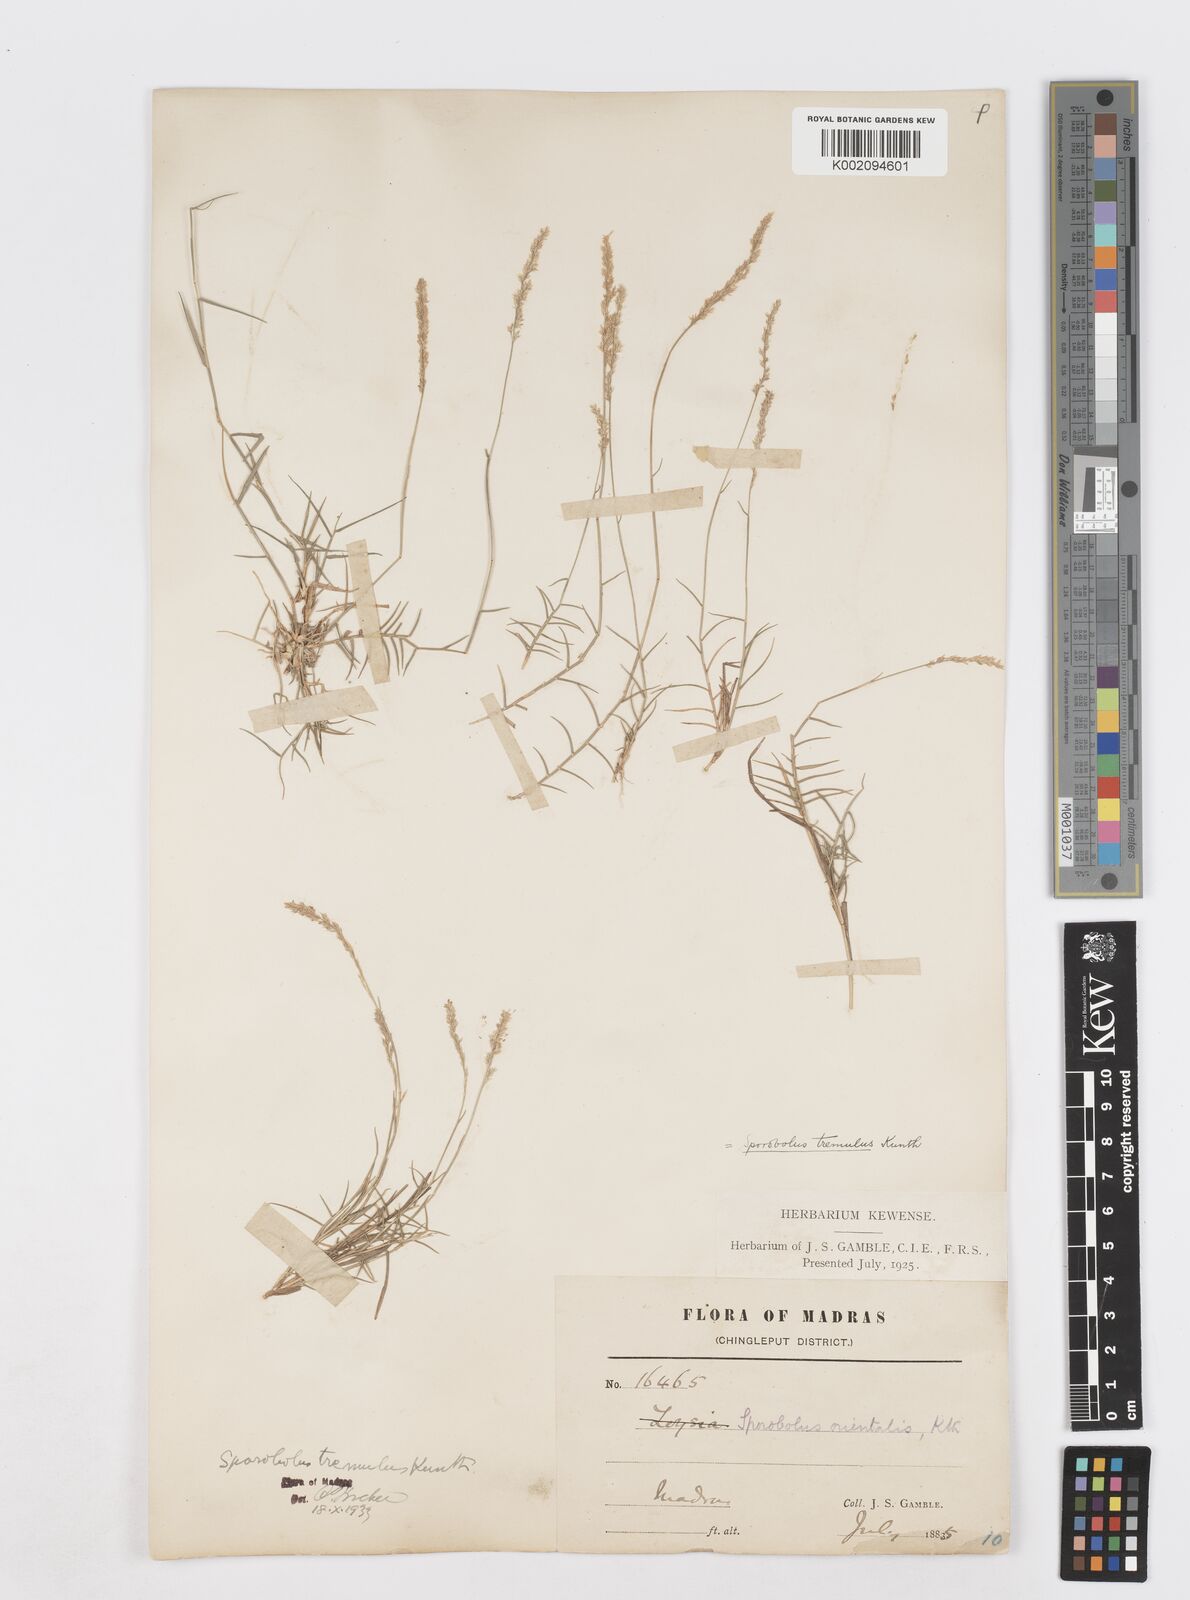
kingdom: Plantae
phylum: Tracheophyta
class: Liliopsida
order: Poales
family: Poaceae
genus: Sporobolus
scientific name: Sporobolus virginicus
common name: Beach dropseed
